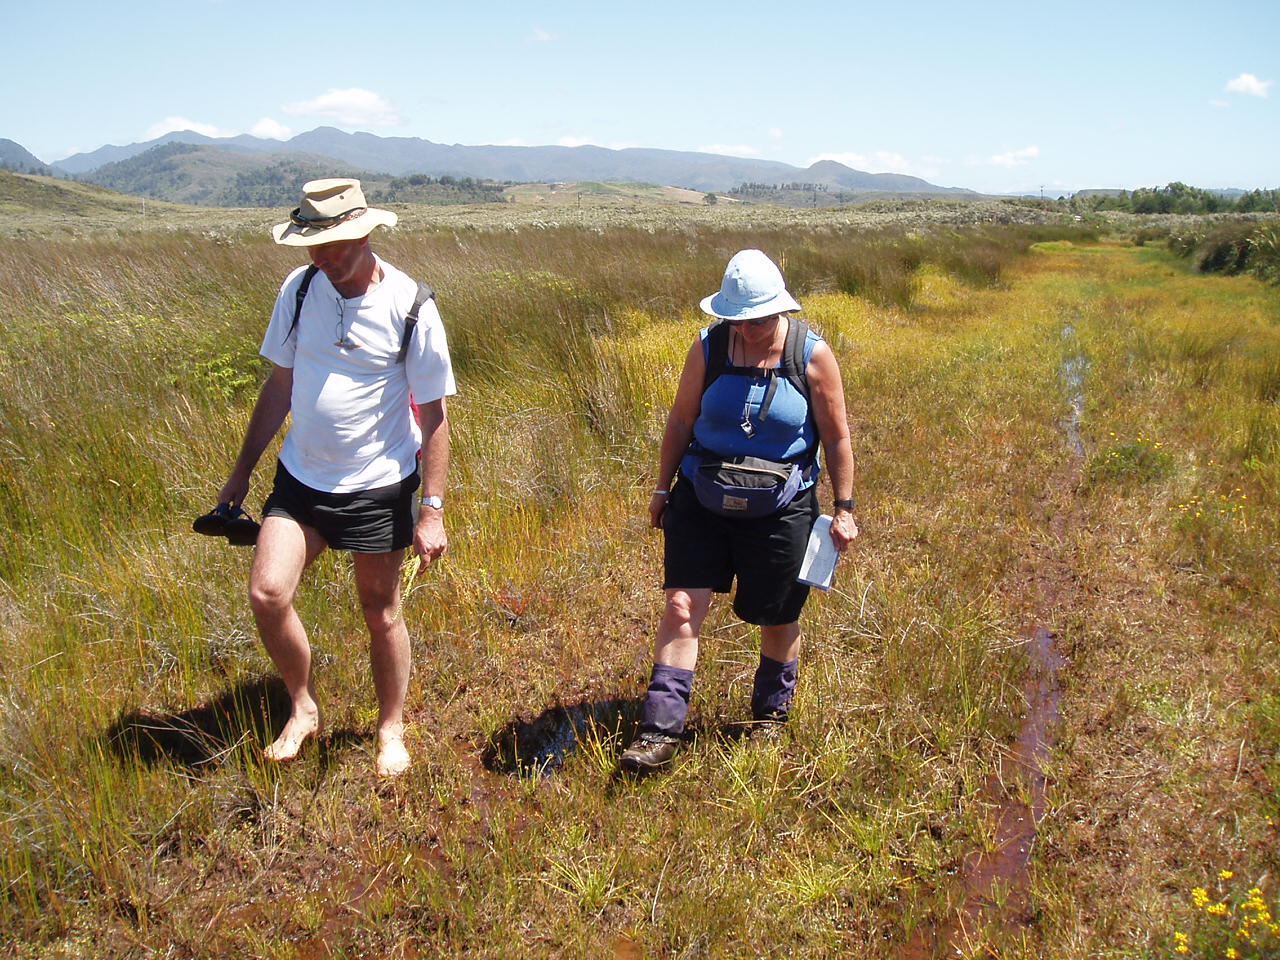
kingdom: Plantae
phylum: Tracheophyta
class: Magnoliopsida
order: Lamiales
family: Plantaginaceae
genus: Gratiola
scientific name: Gratiola sexdentata
